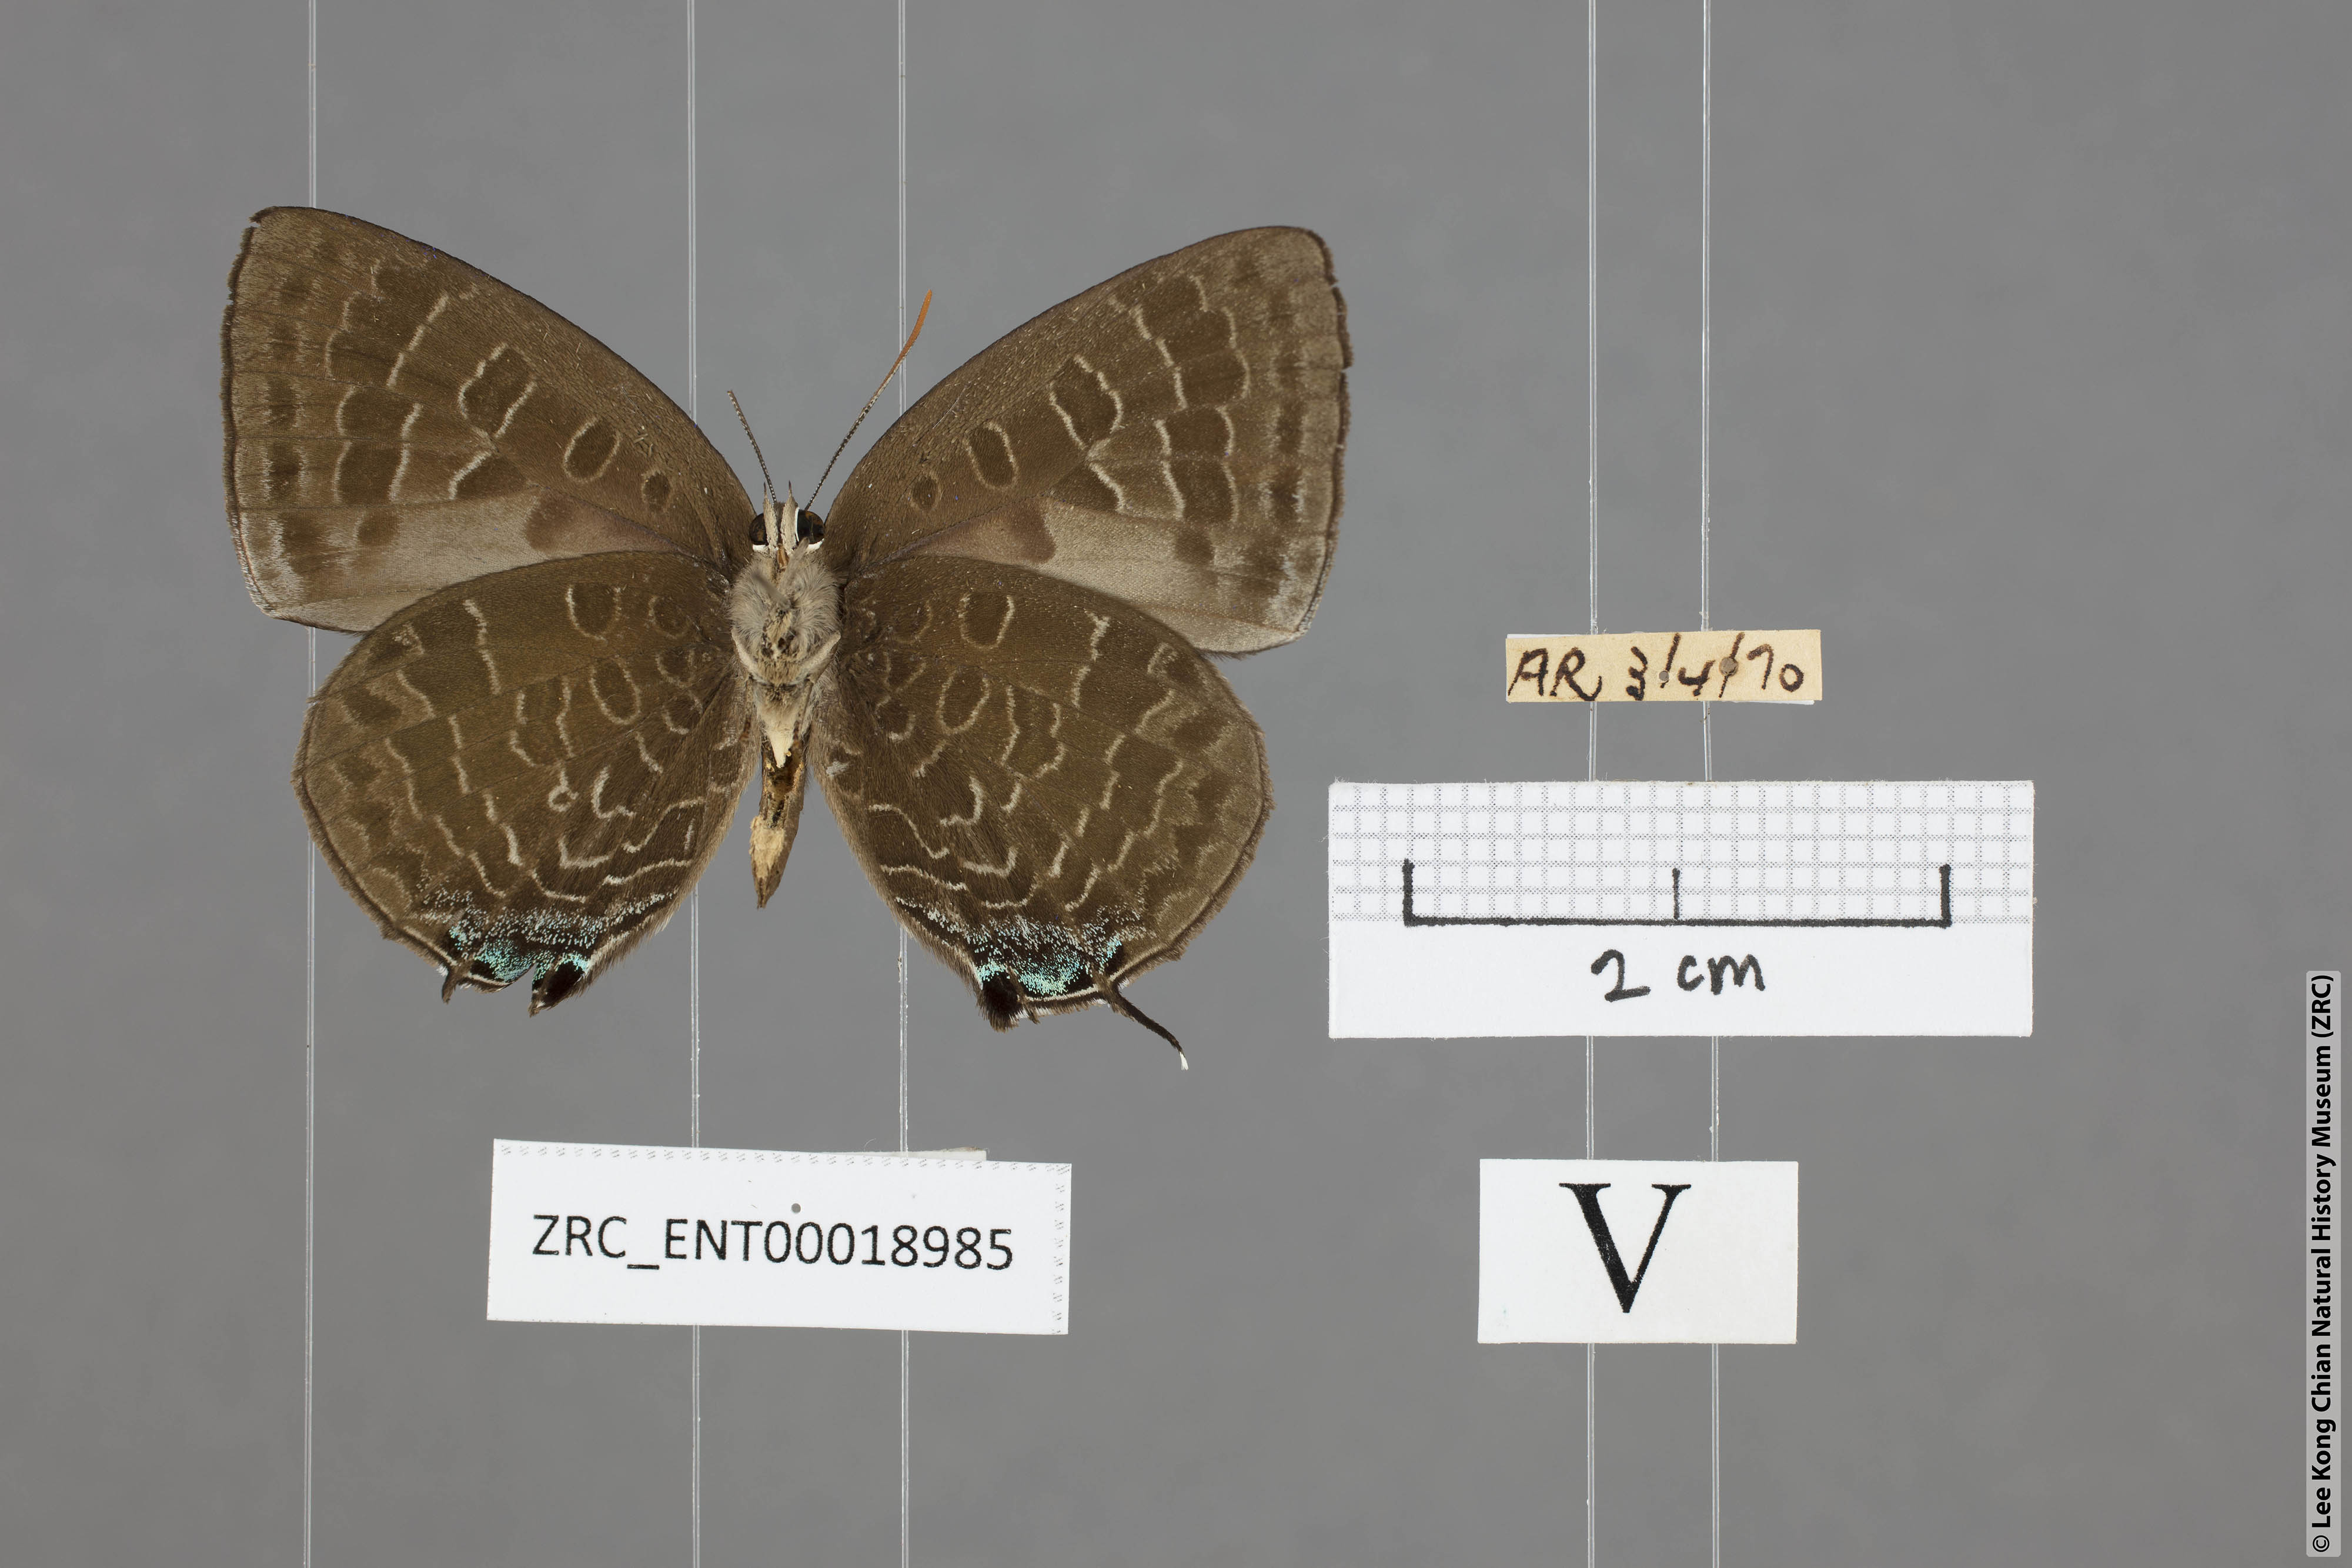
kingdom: Animalia
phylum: Arthropoda
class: Insecta
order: Lepidoptera
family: Lycaenidae
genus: Arhopala
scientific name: Arhopala ace
